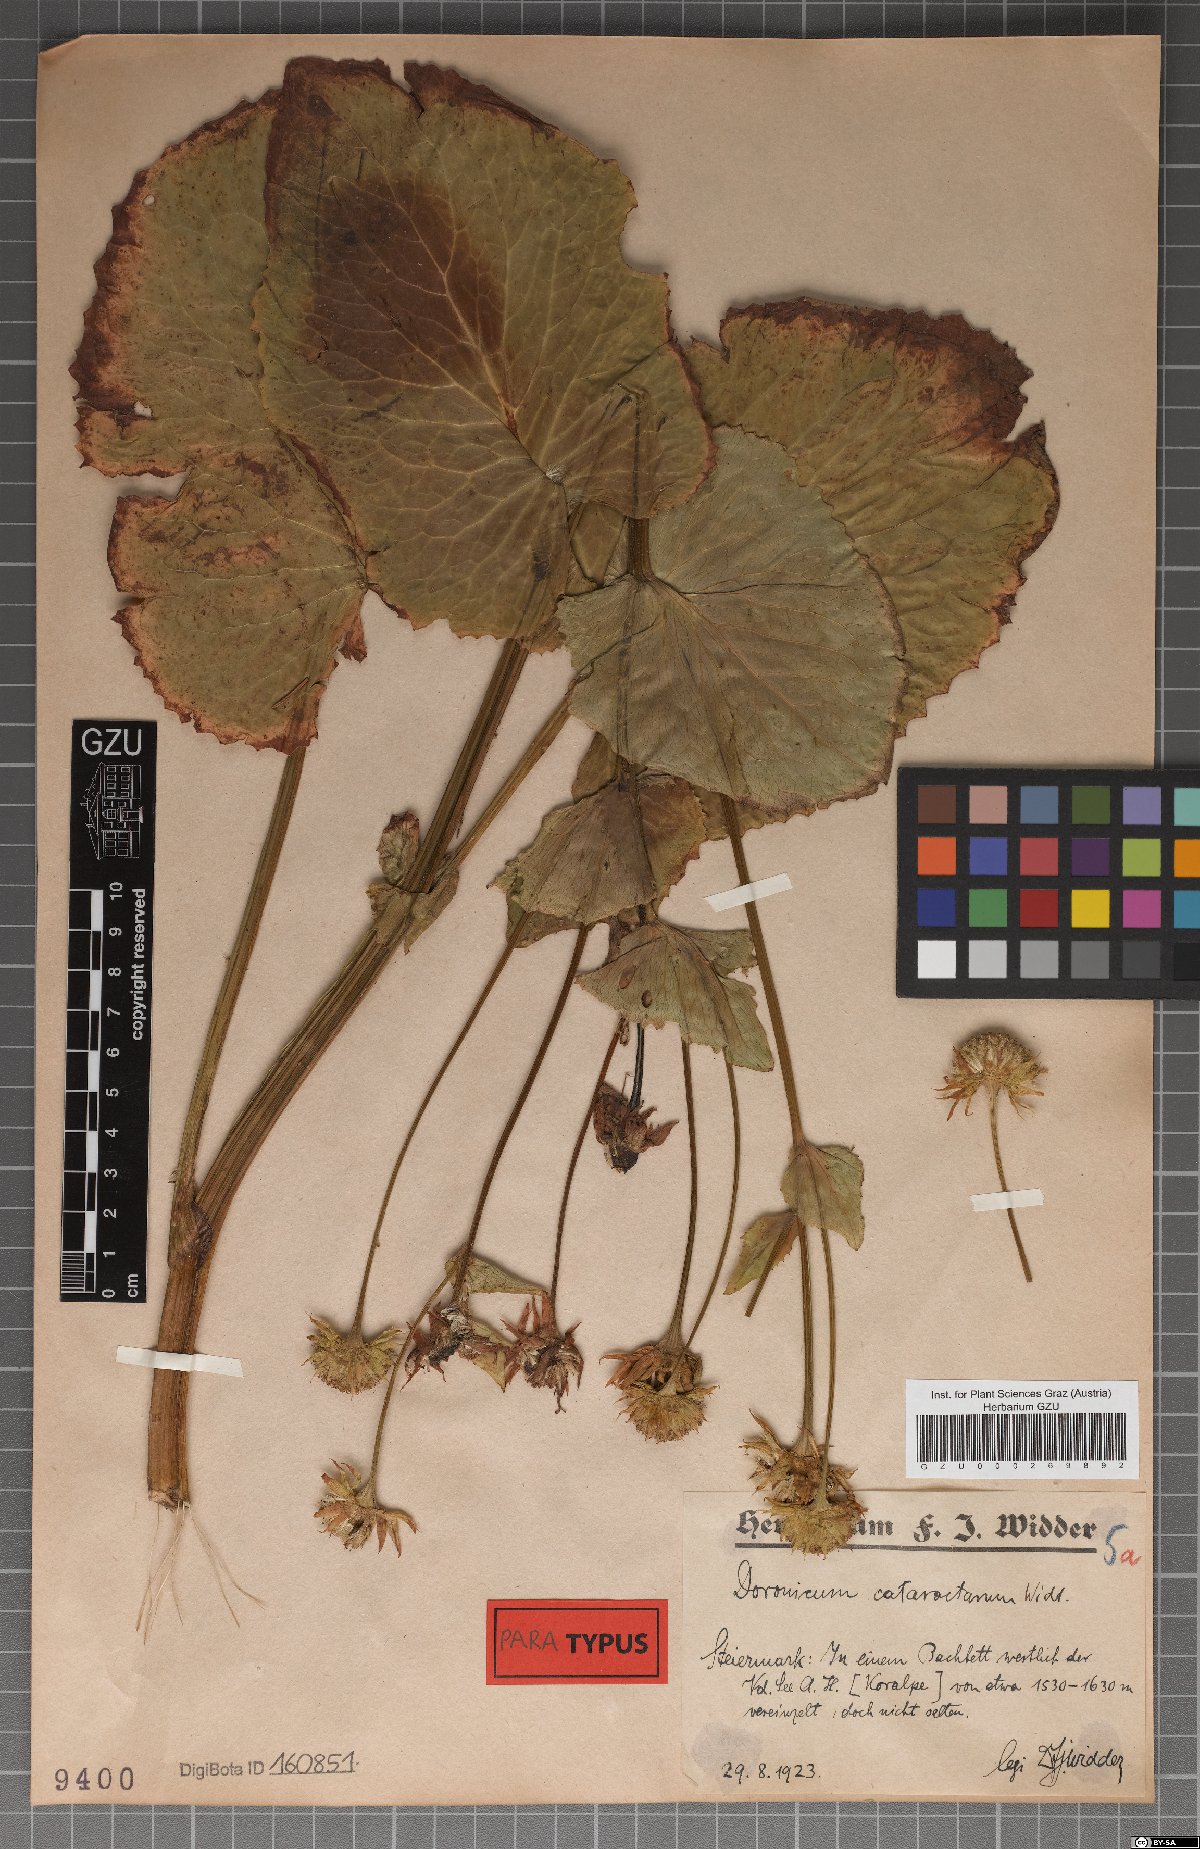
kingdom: Plantae
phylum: Tracheophyta
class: Magnoliopsida
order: Asterales
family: Asteraceae
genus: Doronicum
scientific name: Doronicum cataractarum
